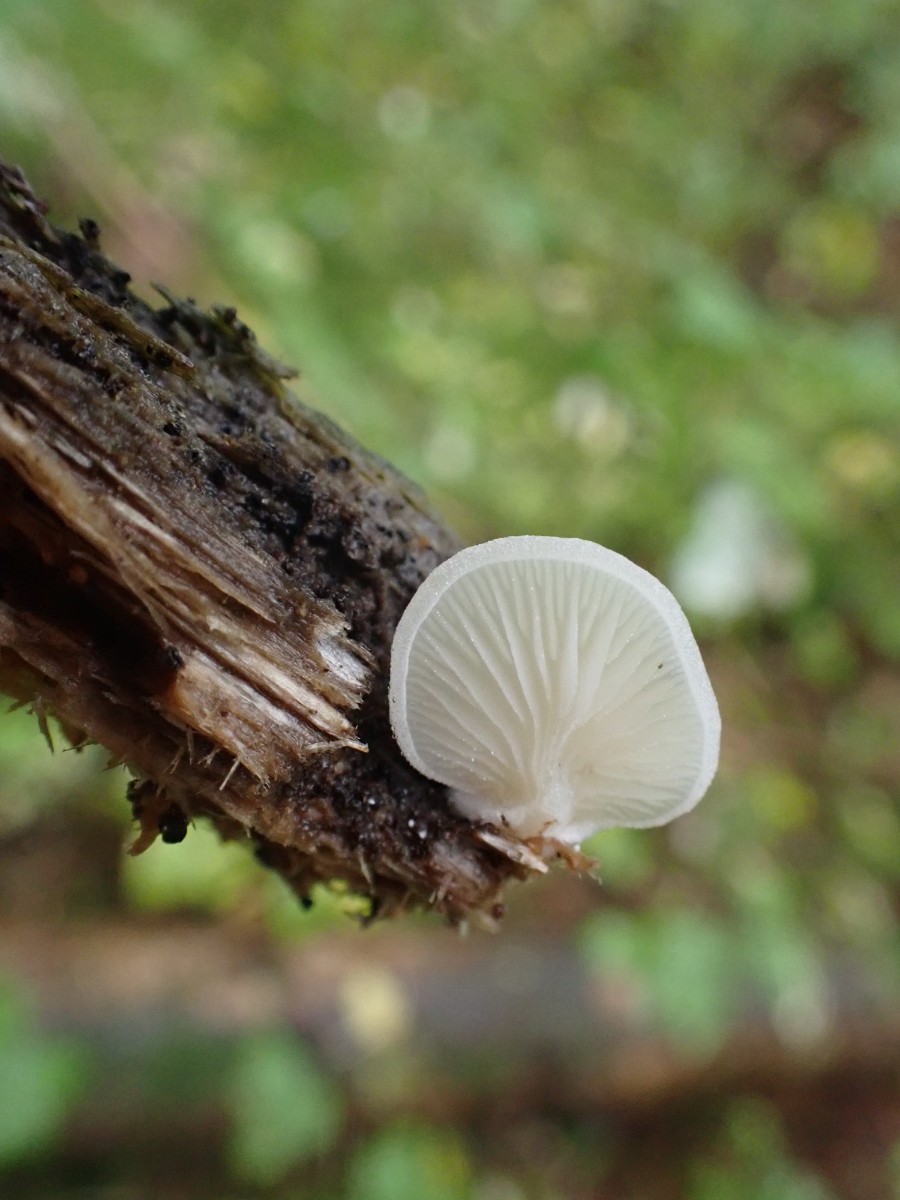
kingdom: Fungi
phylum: Basidiomycota
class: Agaricomycetes
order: Agaricales
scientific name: Agaricales
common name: champignonordenen
